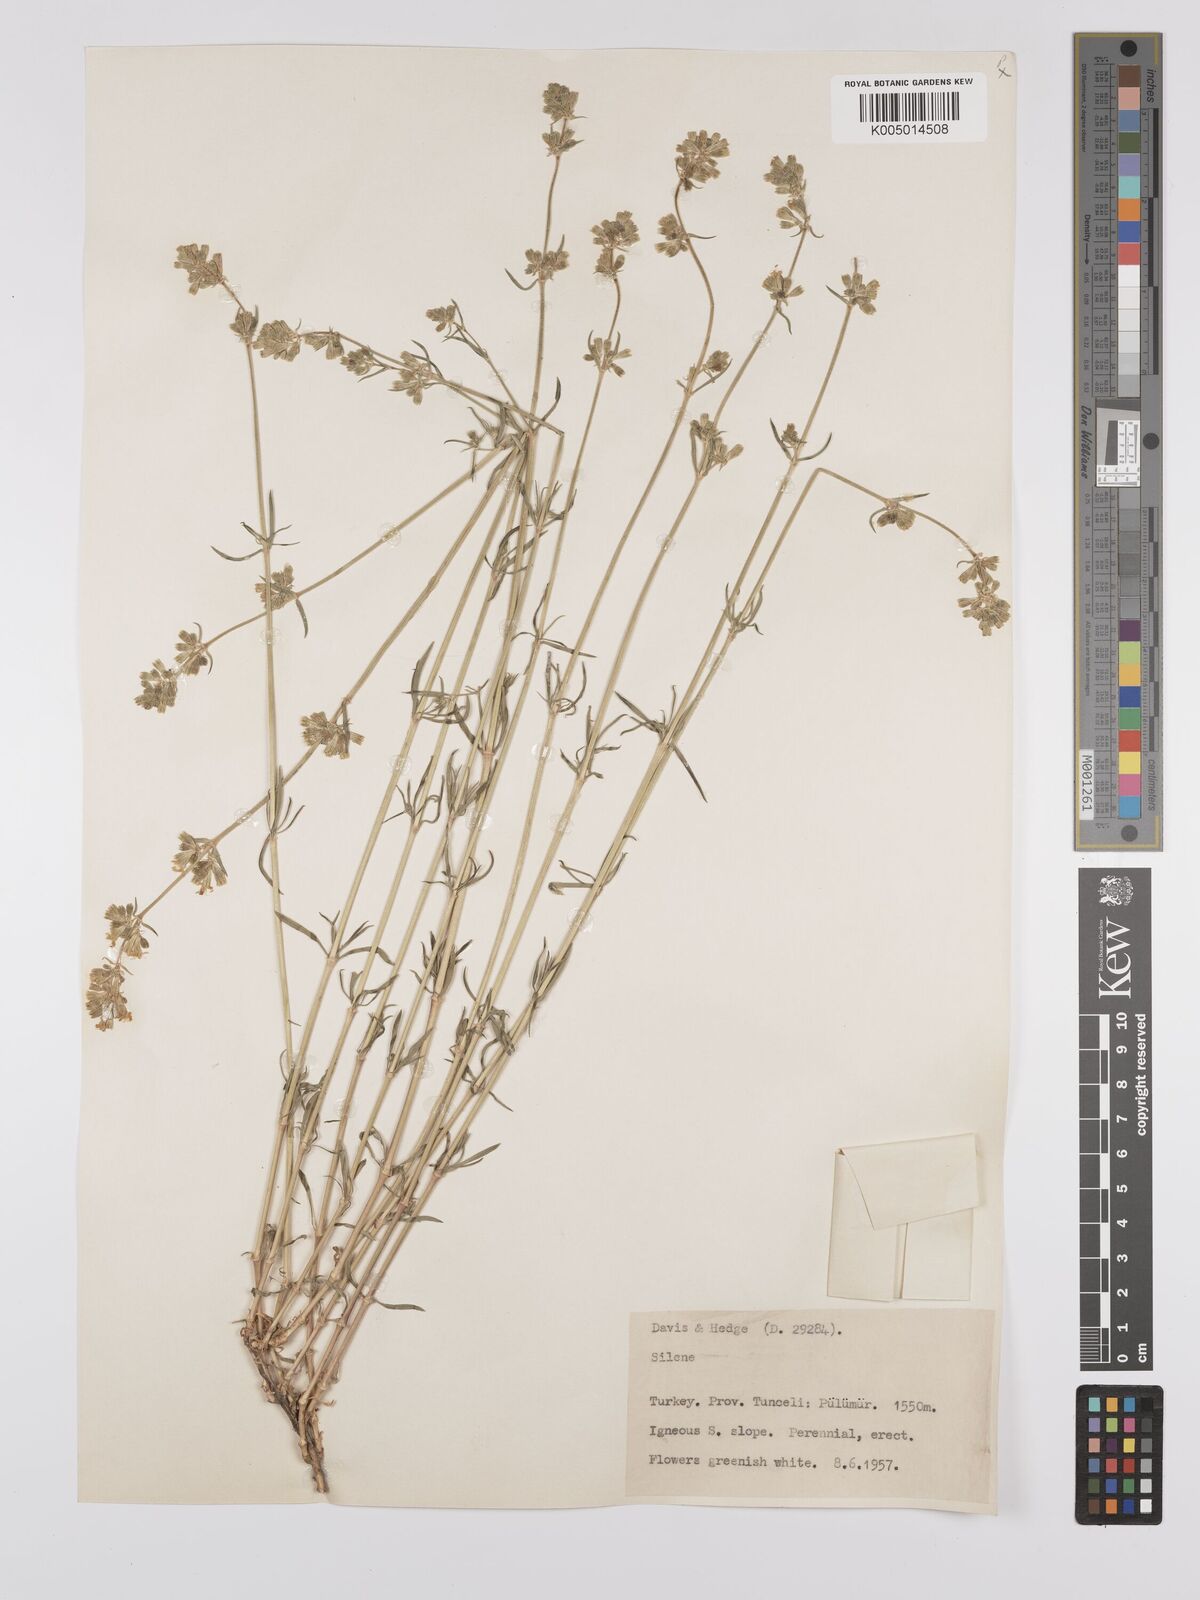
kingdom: Plantae
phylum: Tracheophyta
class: Magnoliopsida
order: Caryophyllales
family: Caryophyllaceae
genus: Silene
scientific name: Silene
